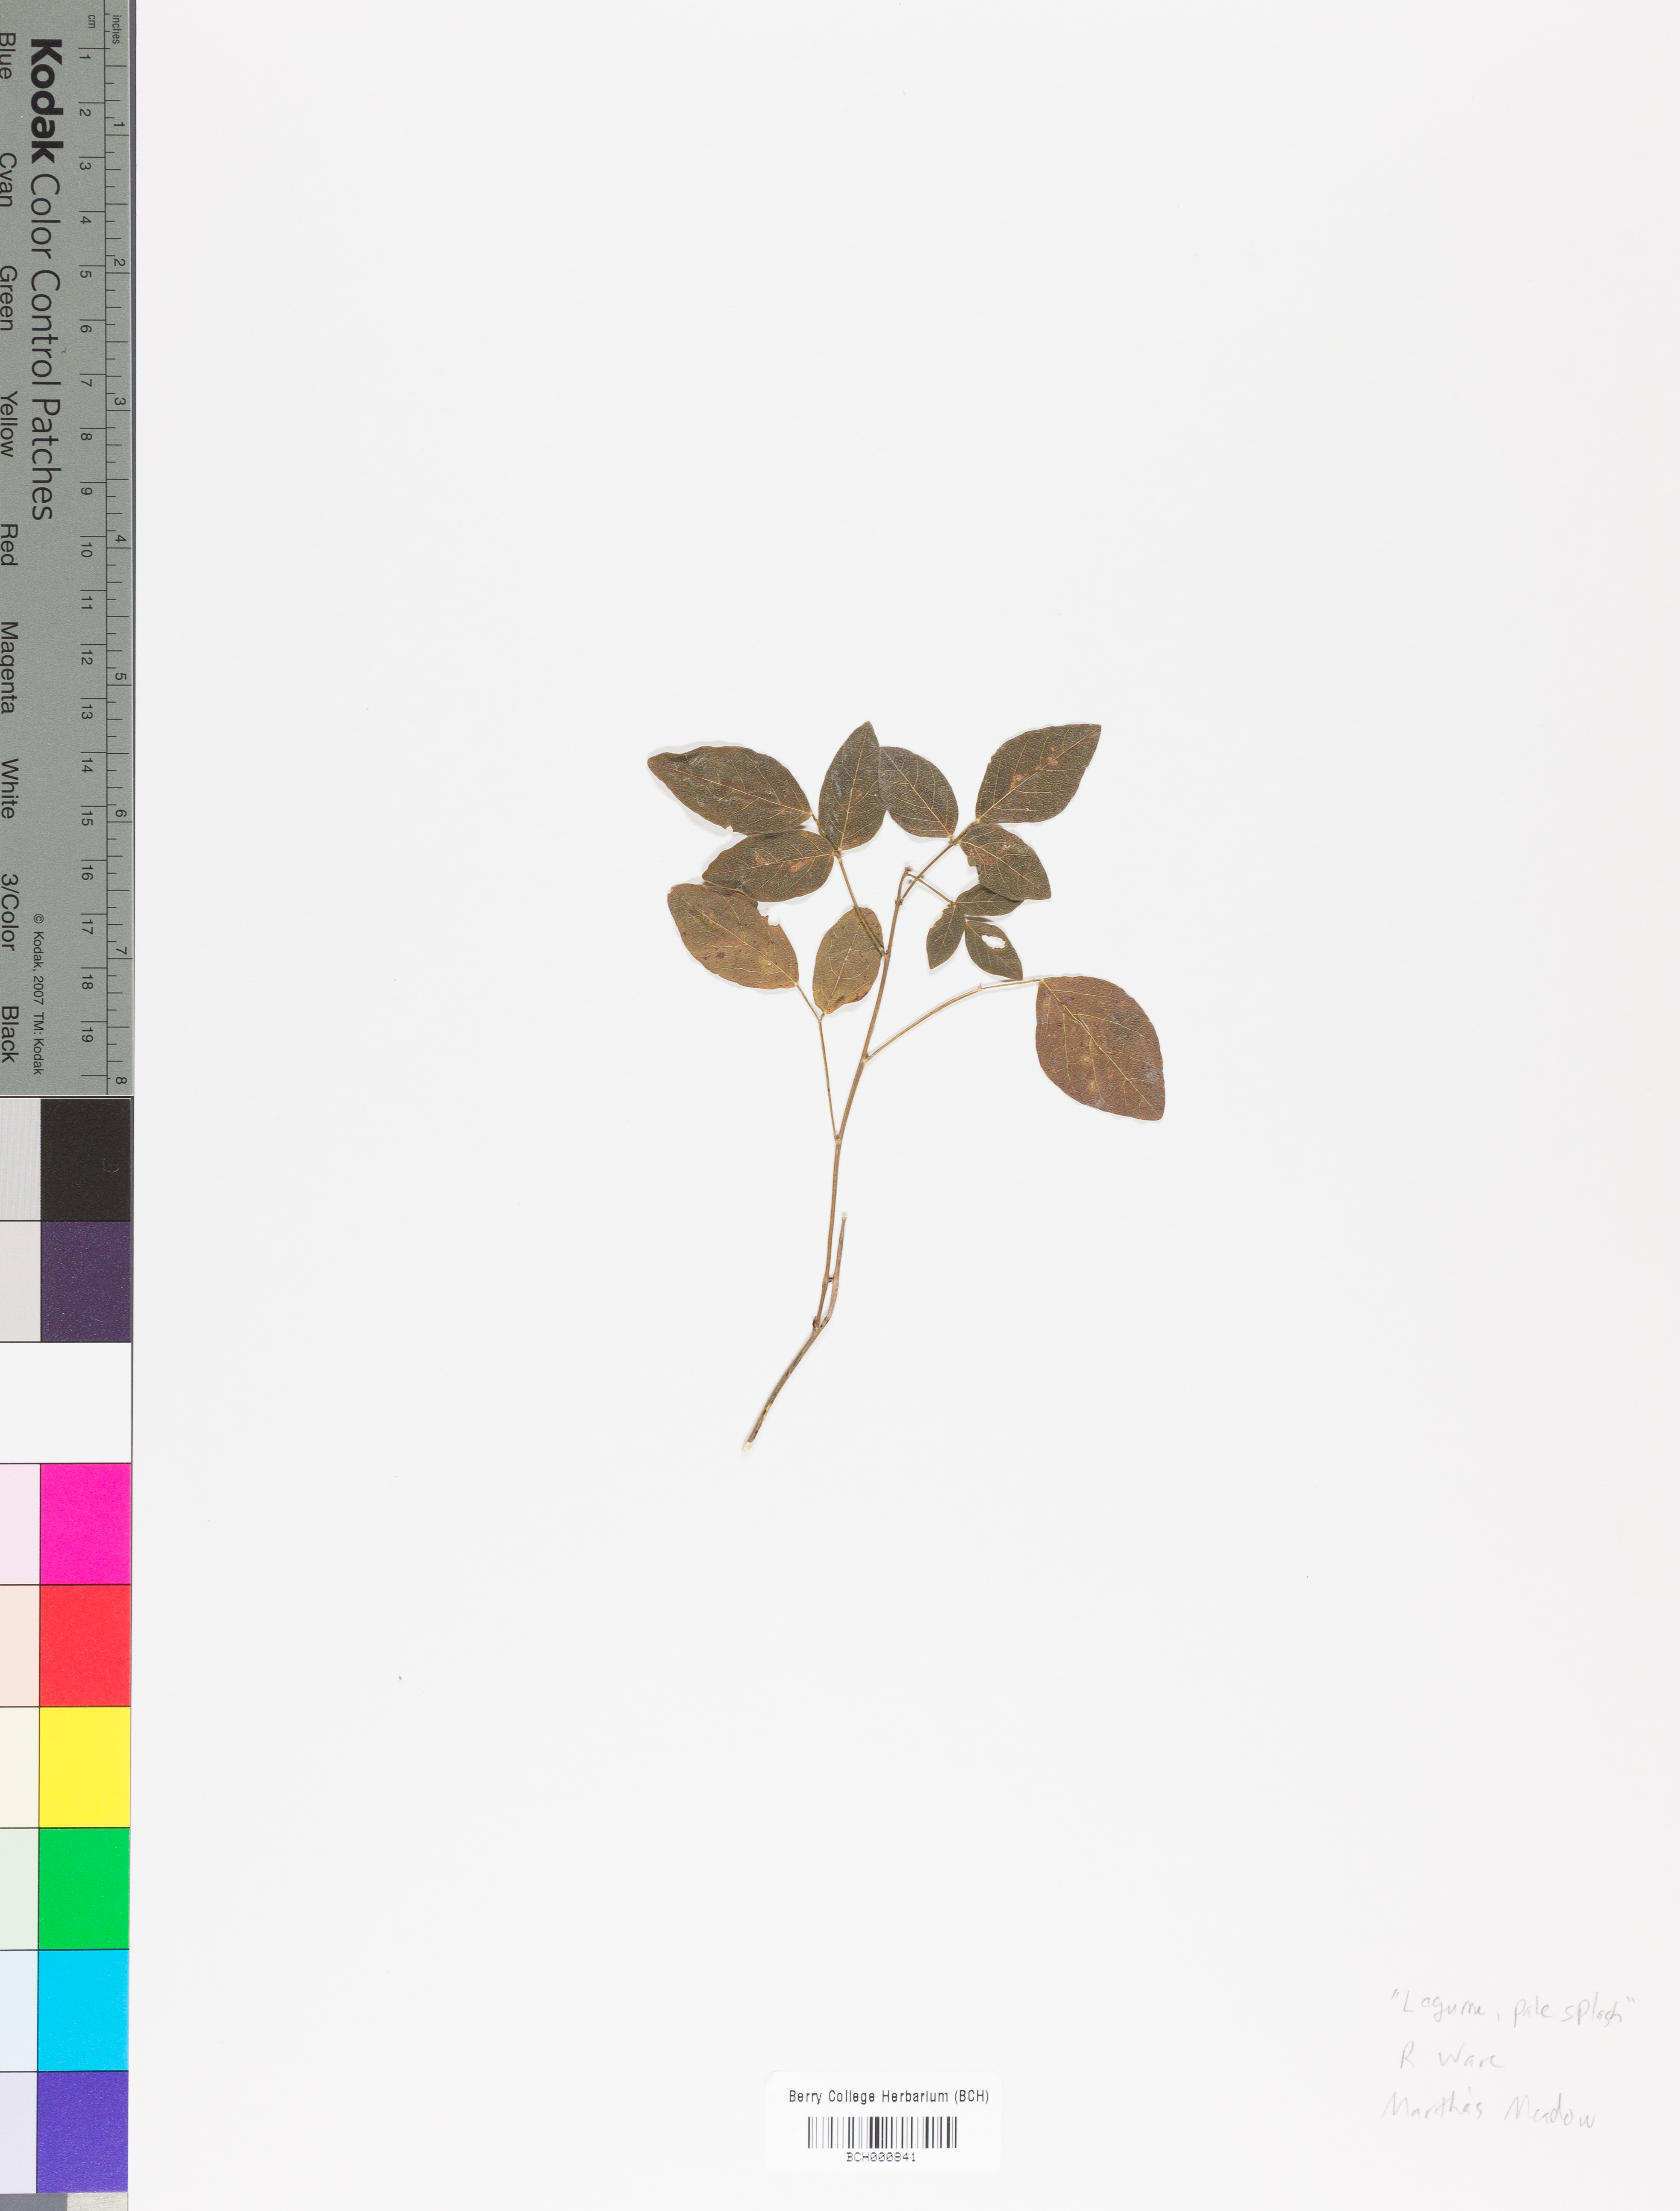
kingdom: Plantae
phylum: Tracheophyta
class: Magnoliopsida
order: Lamiales
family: Acanthaceae
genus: Adhatoda
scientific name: Adhatoda
